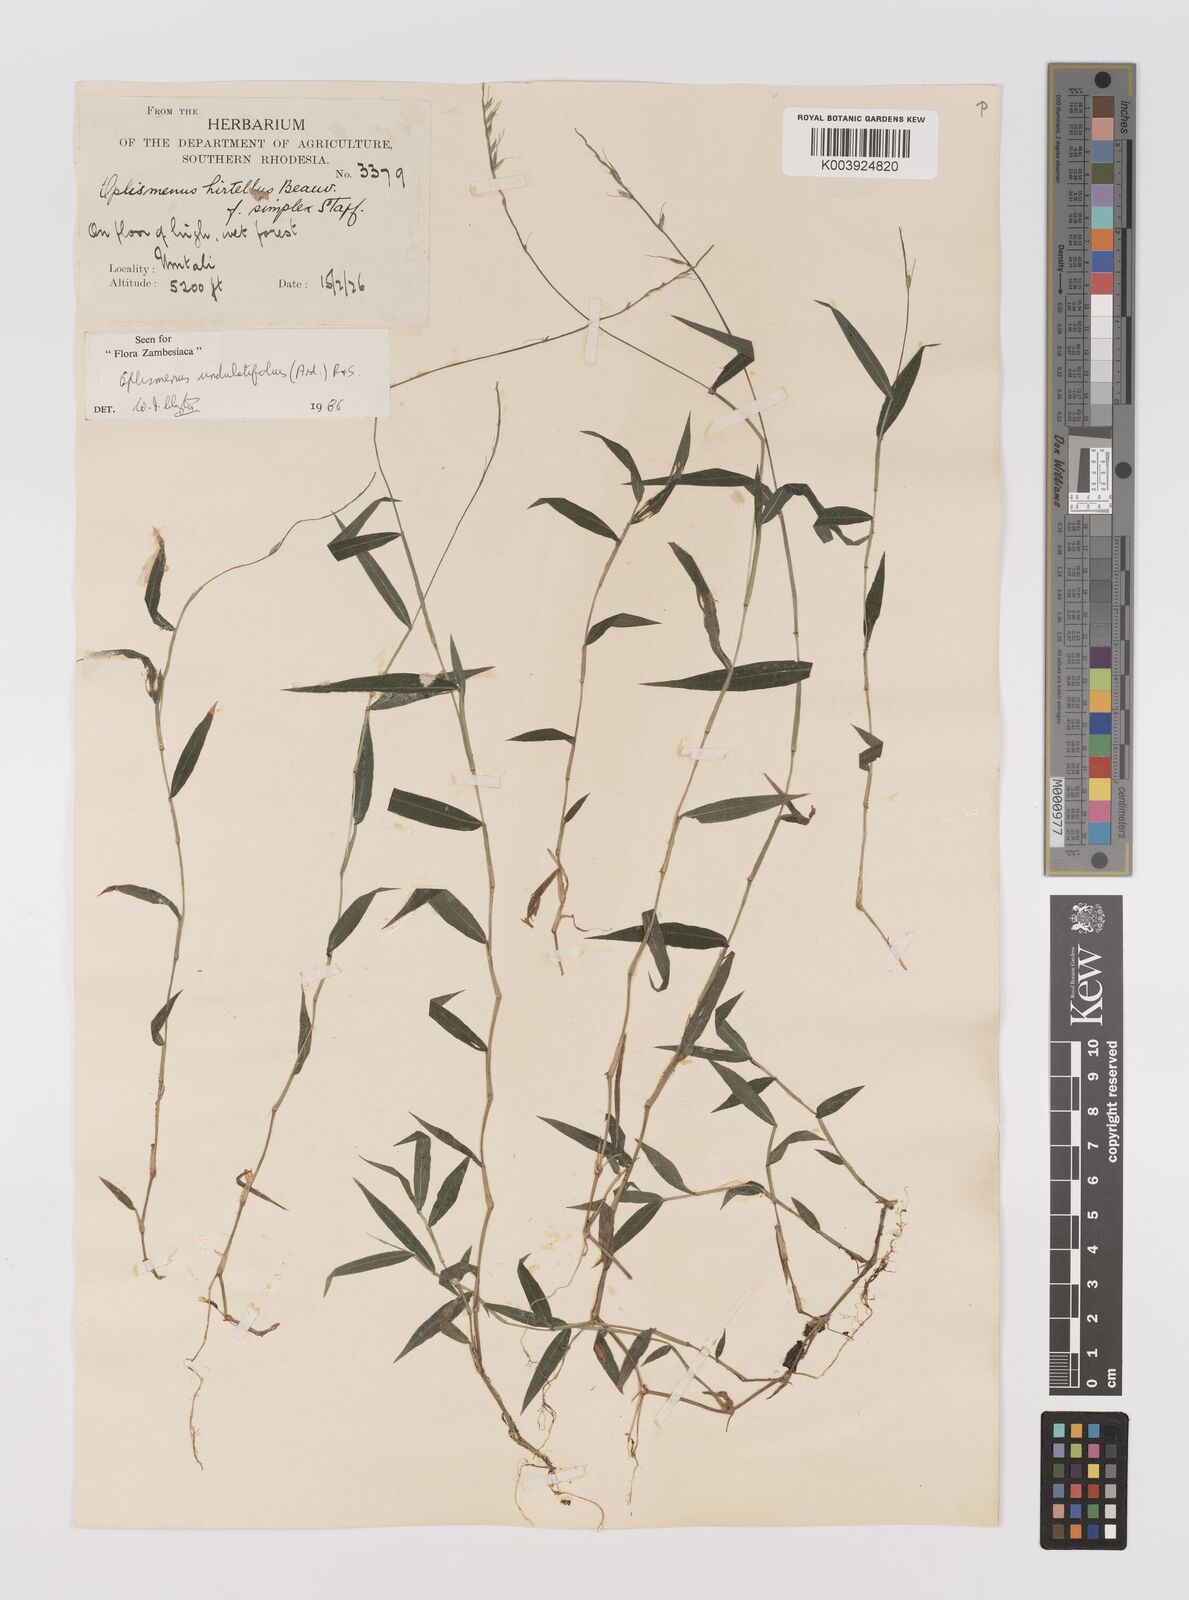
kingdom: Plantae
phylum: Tracheophyta
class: Liliopsida
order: Poales
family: Poaceae
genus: Oplismenus
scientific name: Oplismenus undulatifolius
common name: Wavyleaf basketgrass
